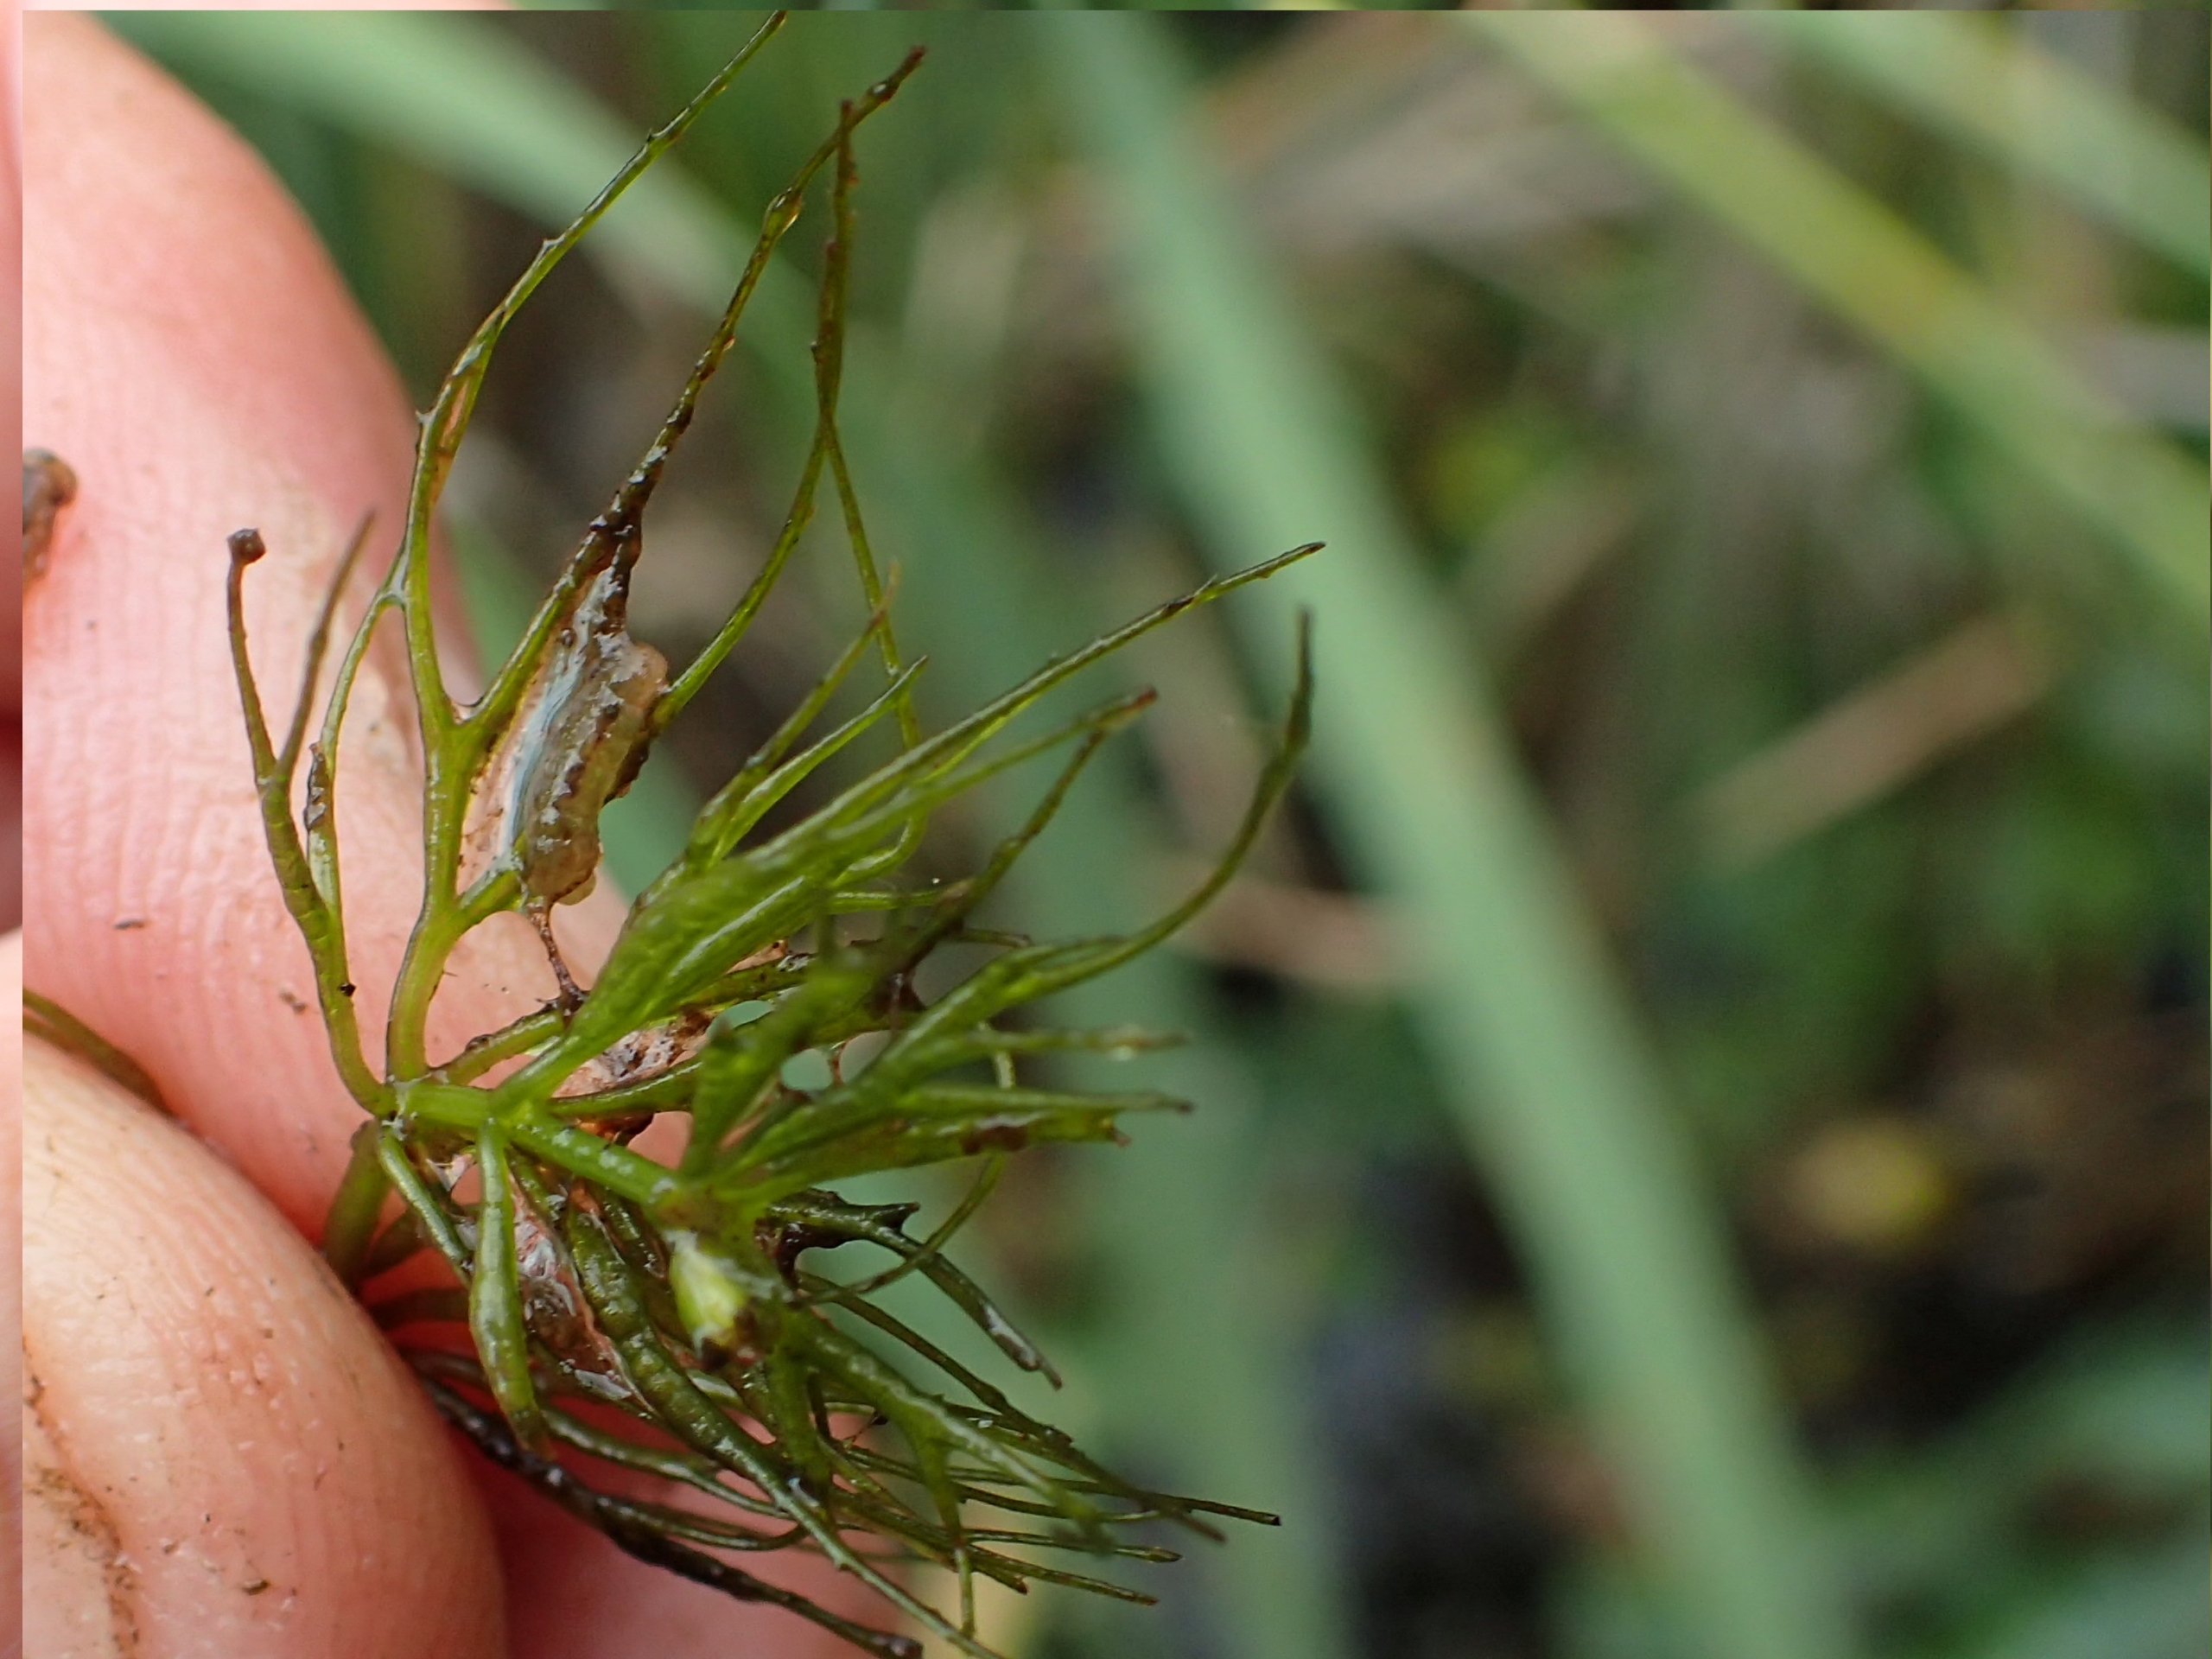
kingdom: Plantae
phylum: Tracheophyta
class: Magnoliopsida
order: Ceratophyllales
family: Ceratophyllaceae
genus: Ceratophyllum
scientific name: Ceratophyllum demersum
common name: Tornfrøet hornblad
